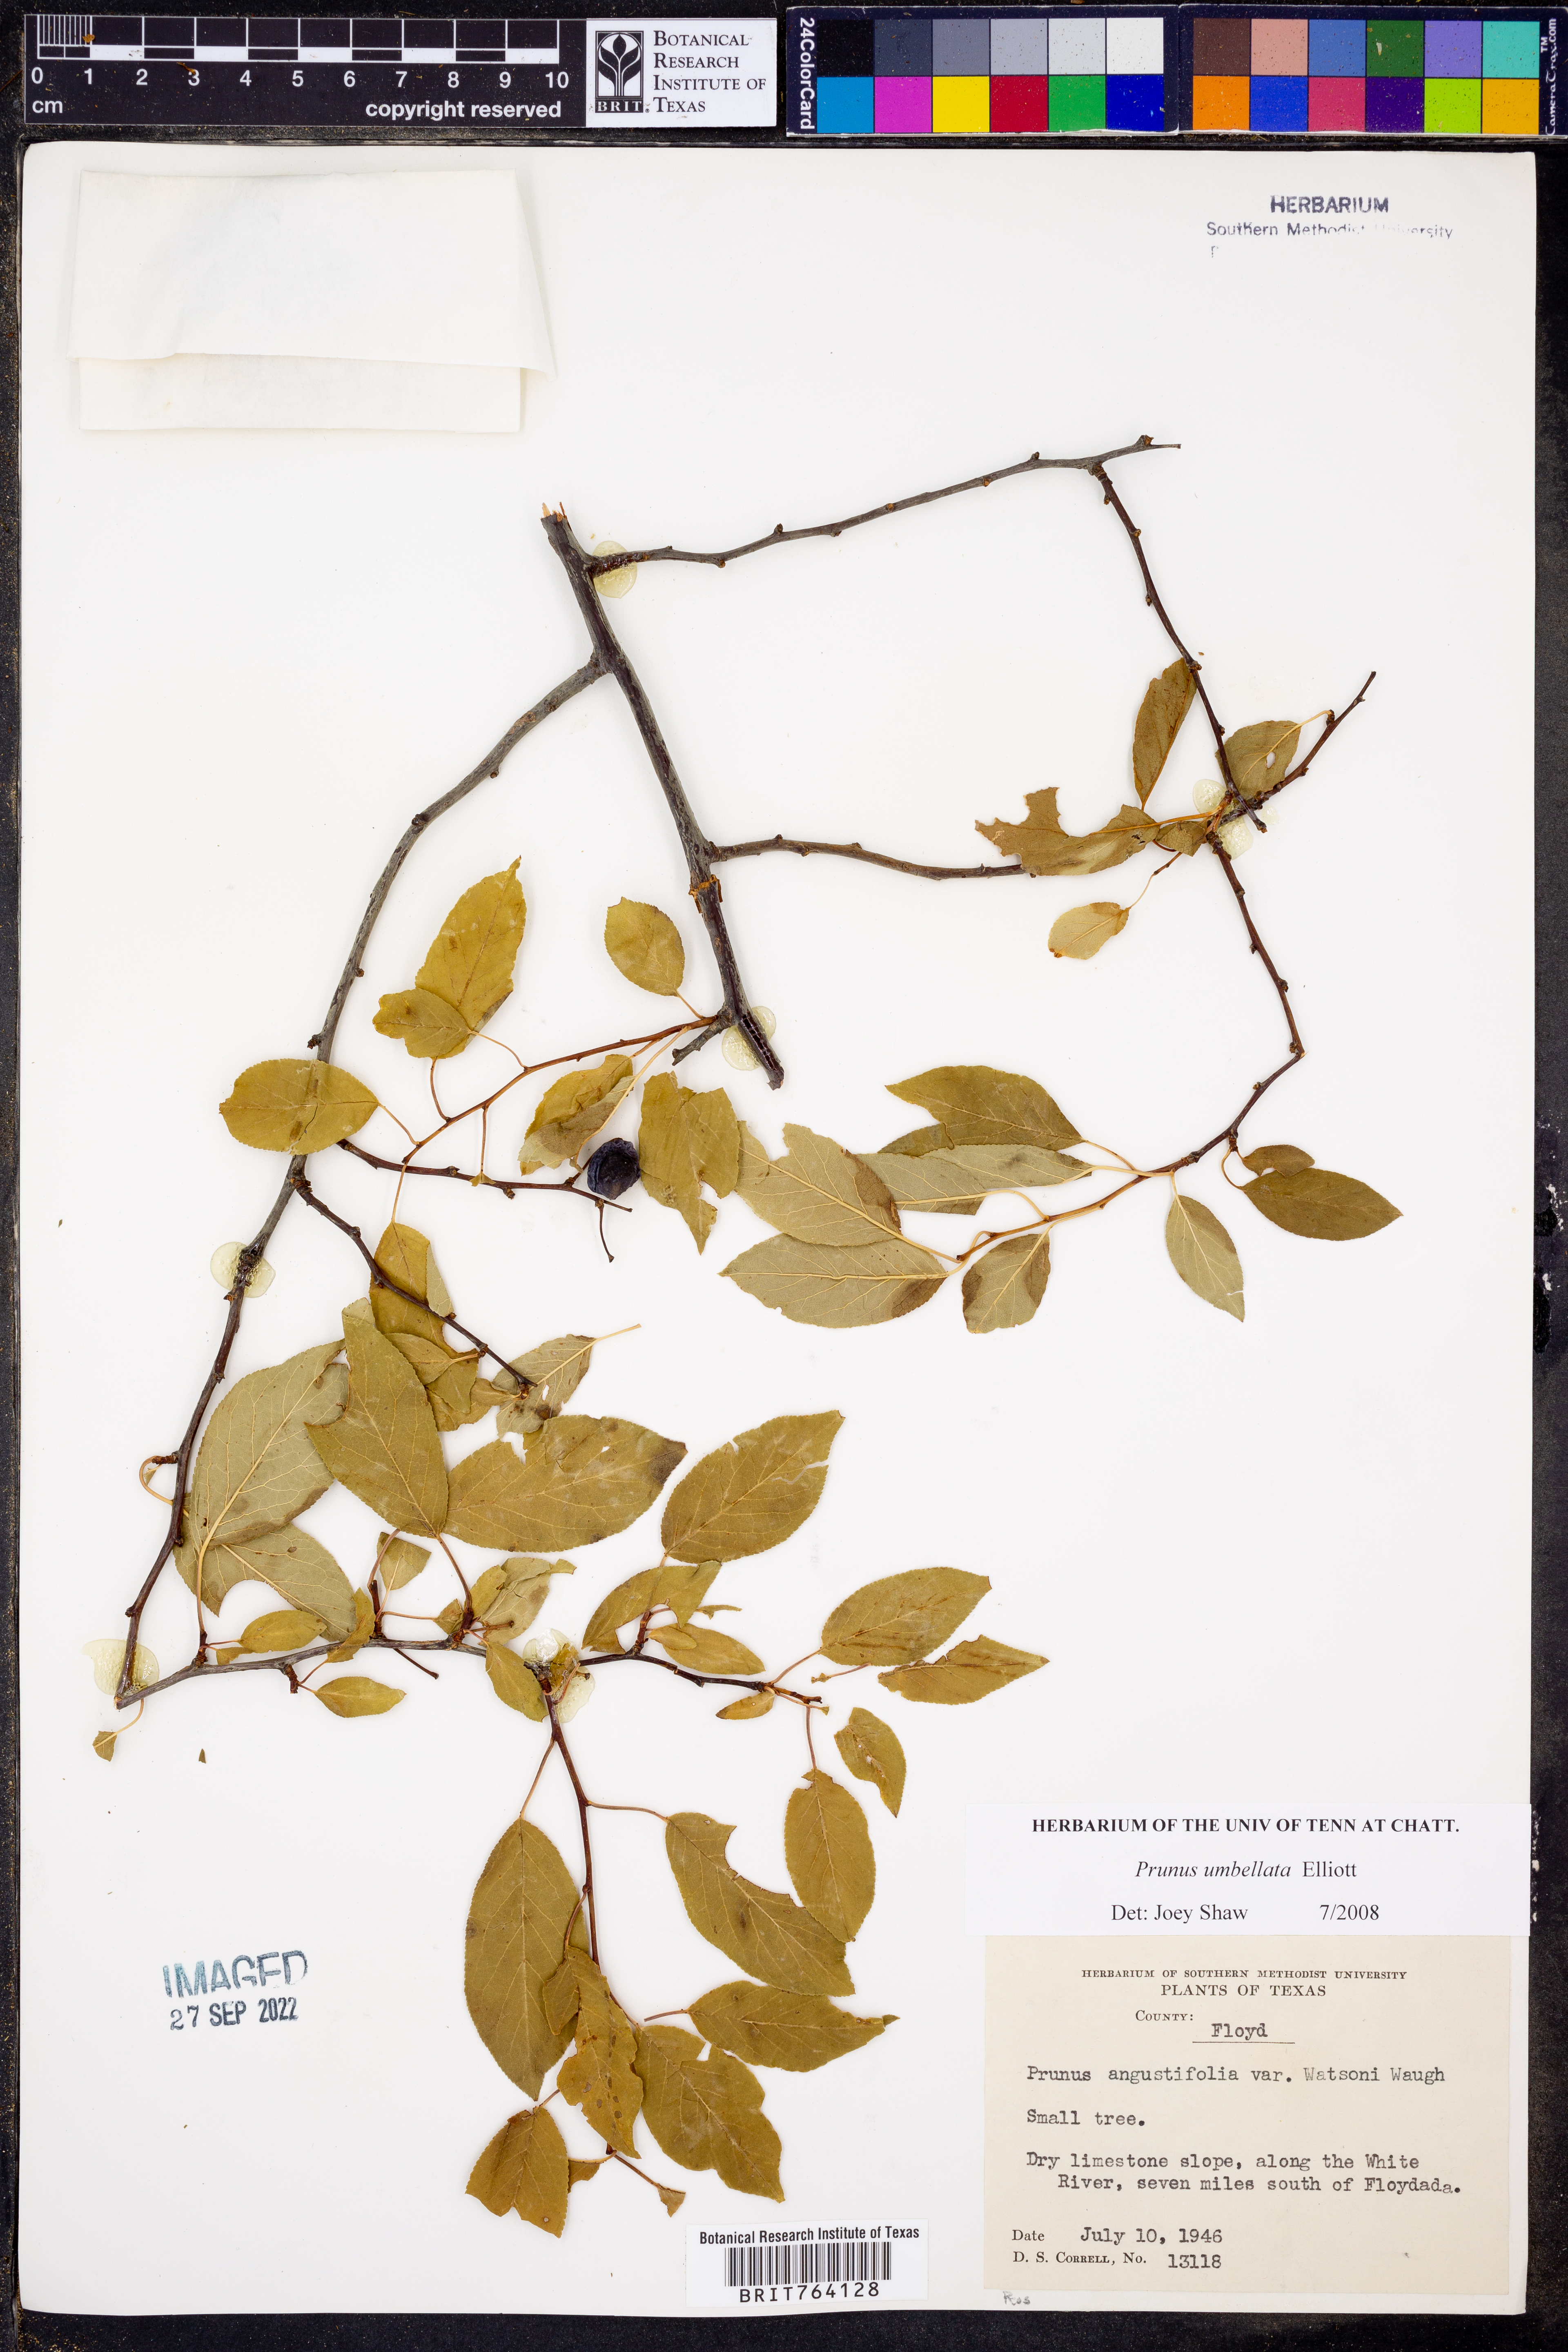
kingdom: Plantae
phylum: Tracheophyta
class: Magnoliopsida
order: Rosales
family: Rosaceae
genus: Prunus
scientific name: Prunus umbellata
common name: Allegheny plum
